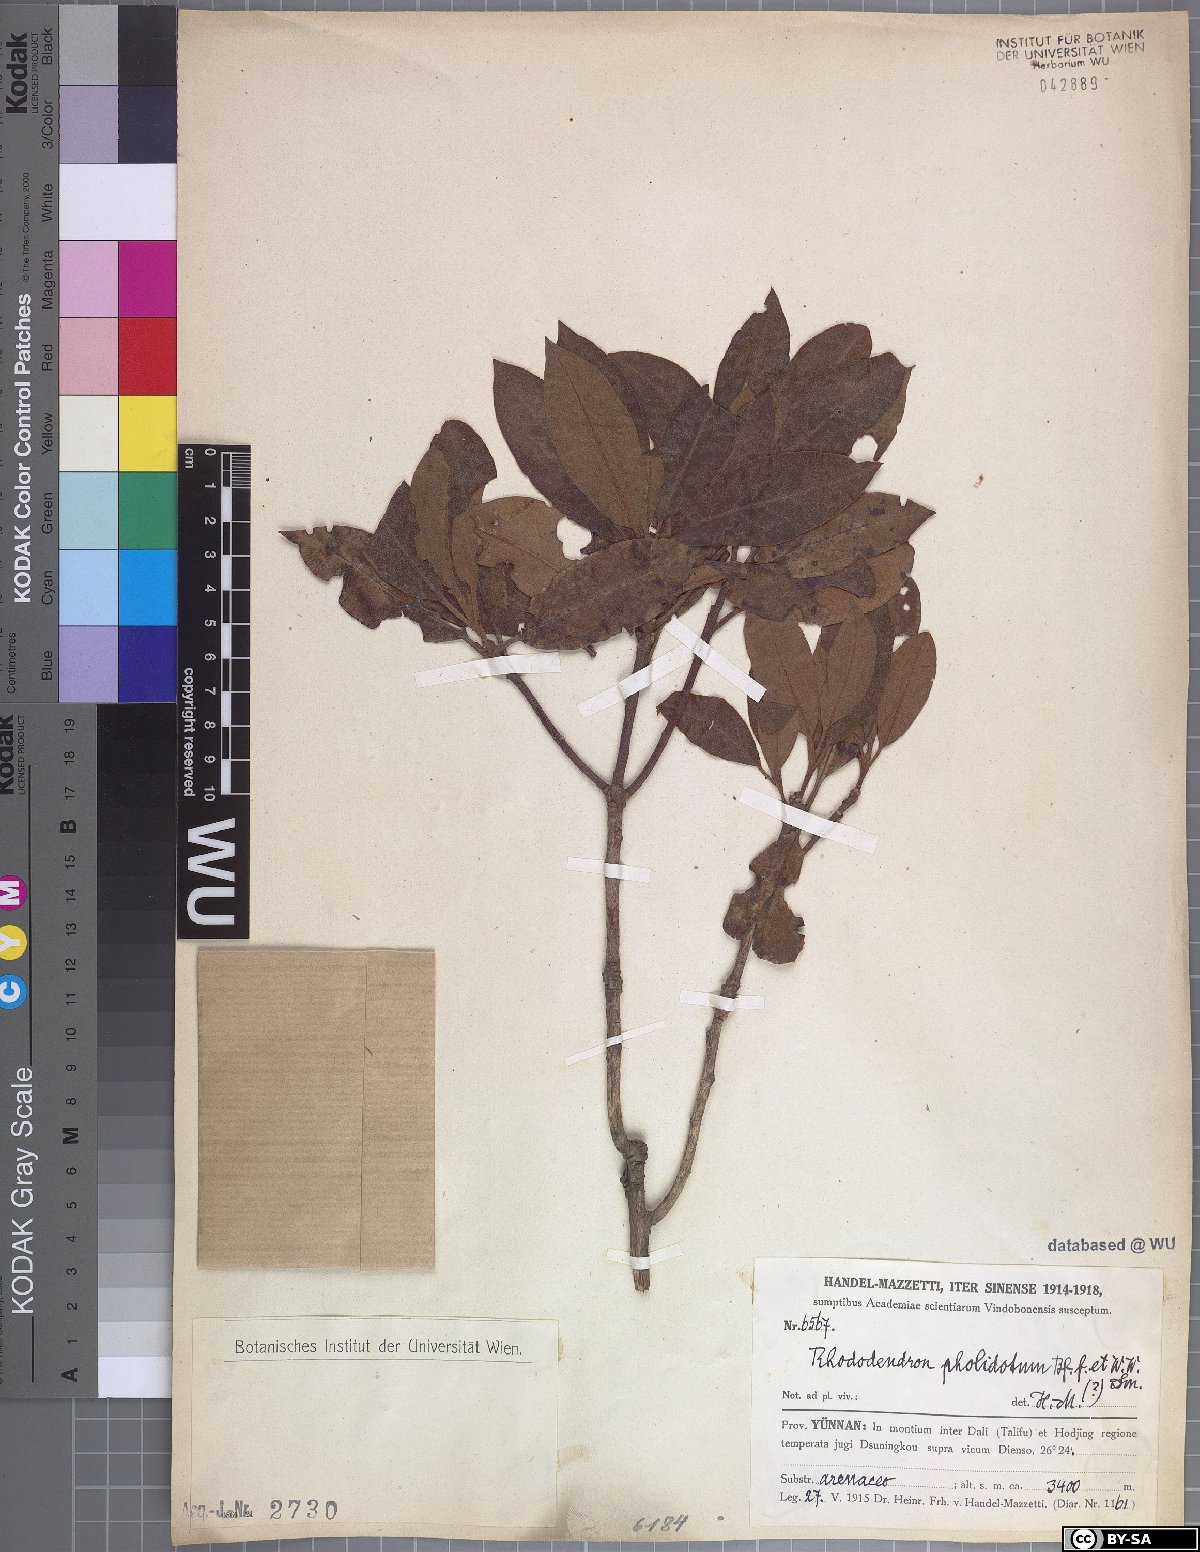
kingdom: Plantae
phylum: Tracheophyta
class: Magnoliopsida
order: Ericales
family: Ericaceae
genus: Rhododendron
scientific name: Rhododendron heliolepis
